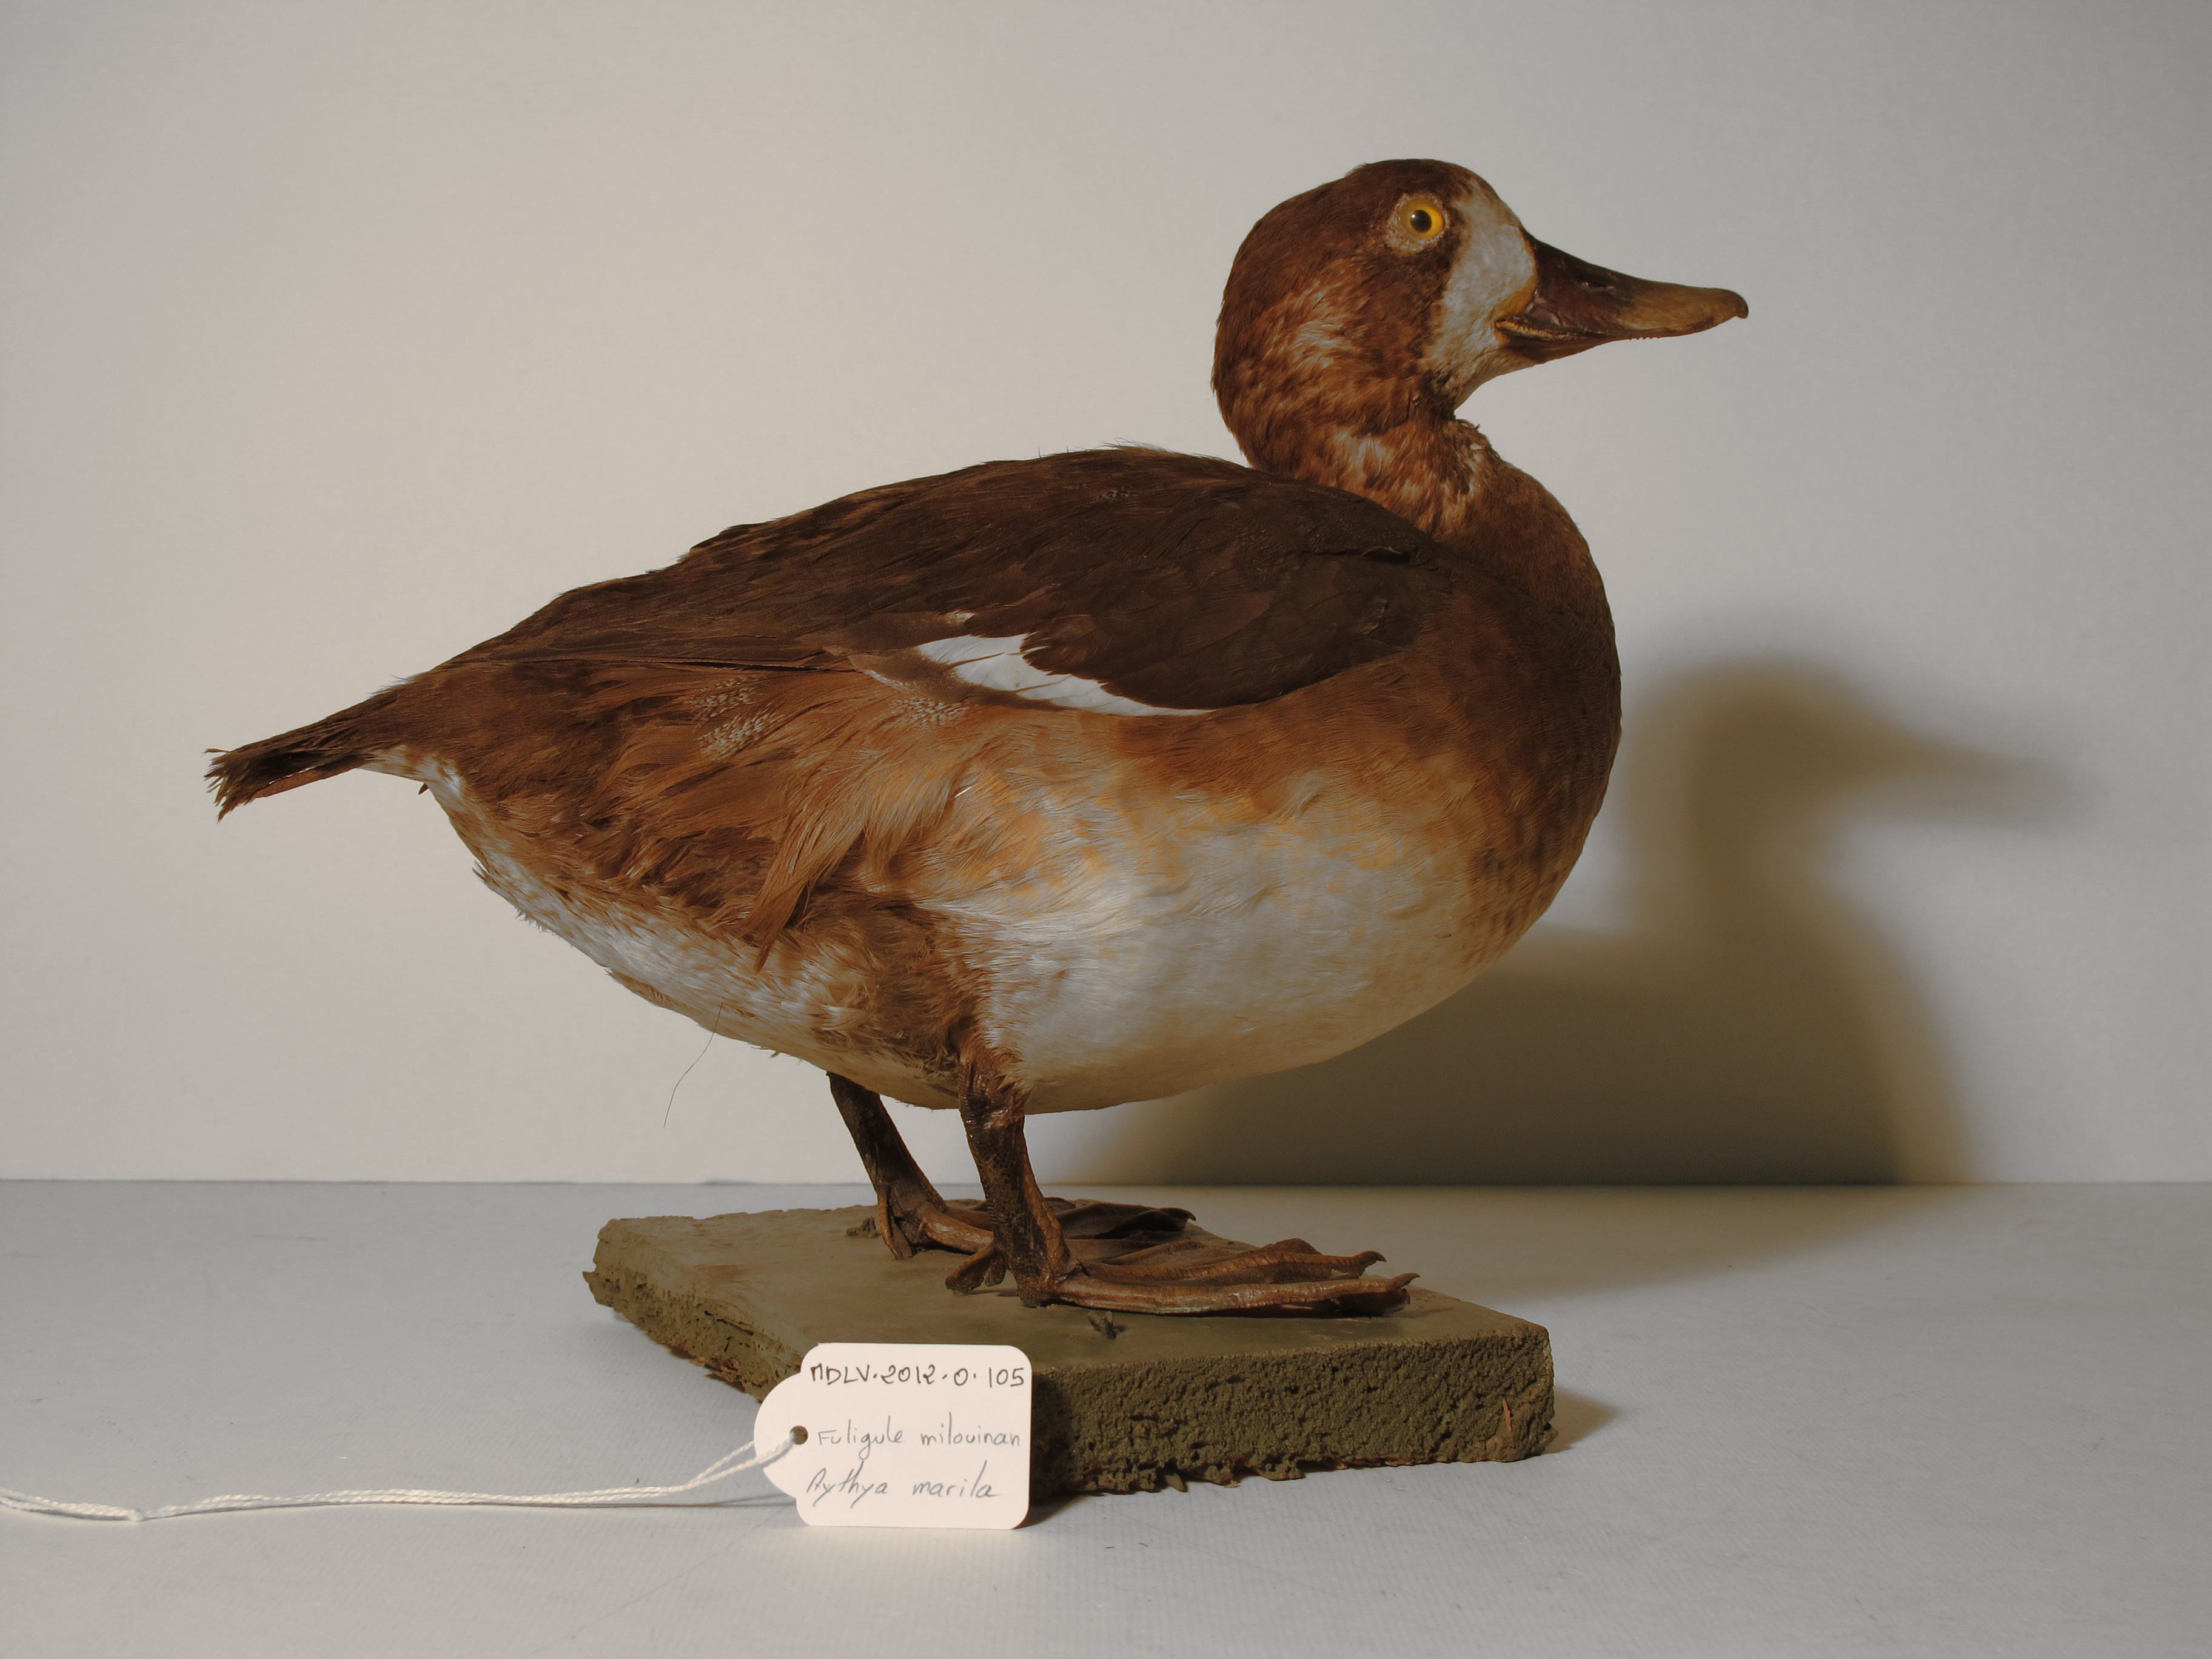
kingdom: Animalia
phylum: Chordata
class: Aves
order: Anseriformes
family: Anatidae
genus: Aythya
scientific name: Aythya marila
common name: Greater Scaup
